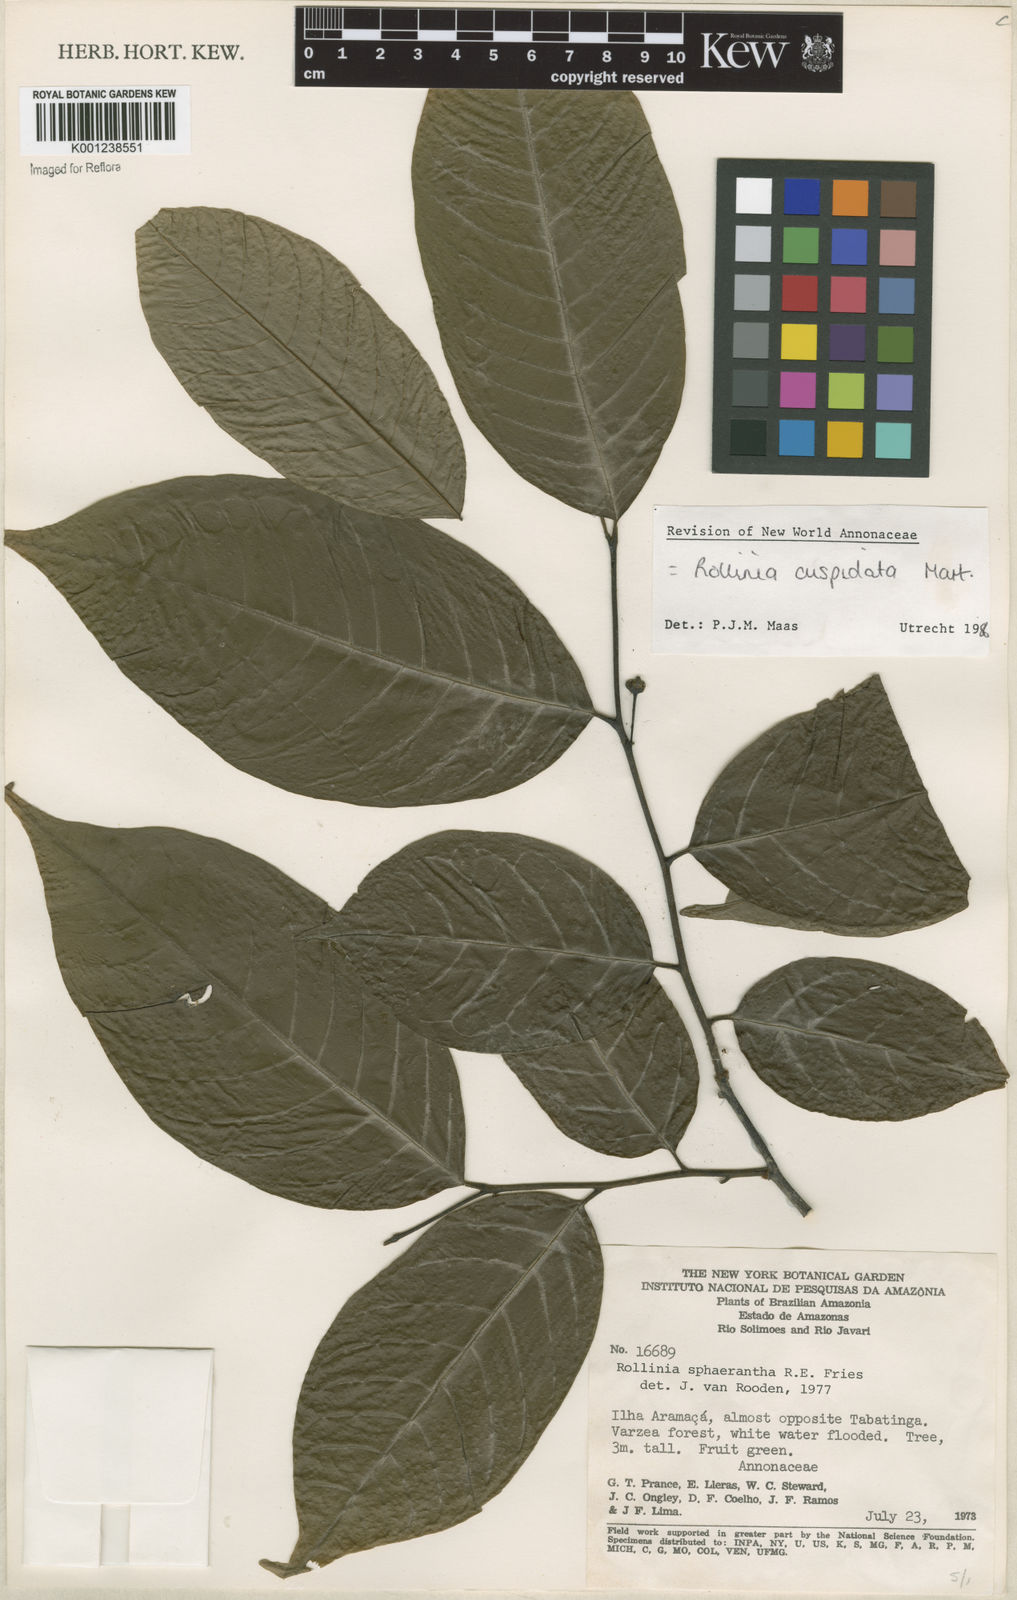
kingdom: Plantae
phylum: Tracheophyta
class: Magnoliopsida
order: Magnoliales
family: Annonaceae
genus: Annona
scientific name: Annona cuspidata
